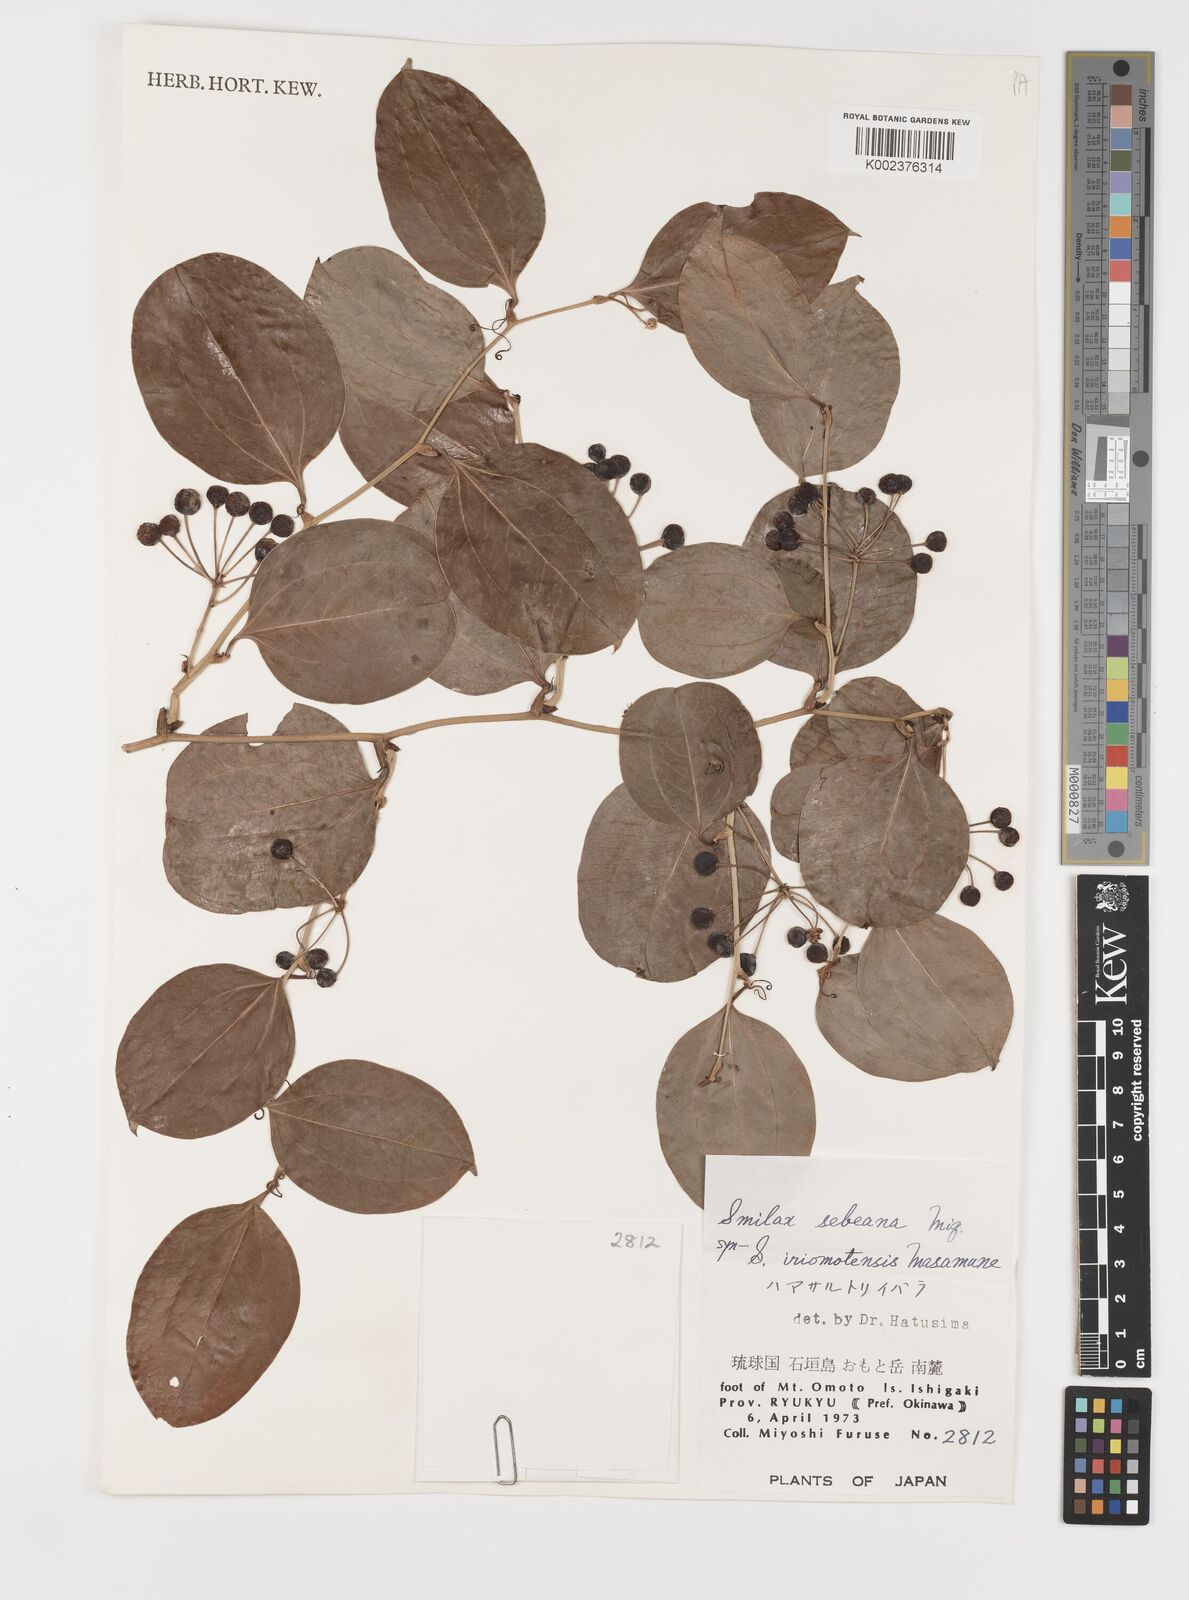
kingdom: Plantae
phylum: Tracheophyta
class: Liliopsida
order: Liliales
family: Smilacaceae
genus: Smilax
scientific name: Smilax sebeana
